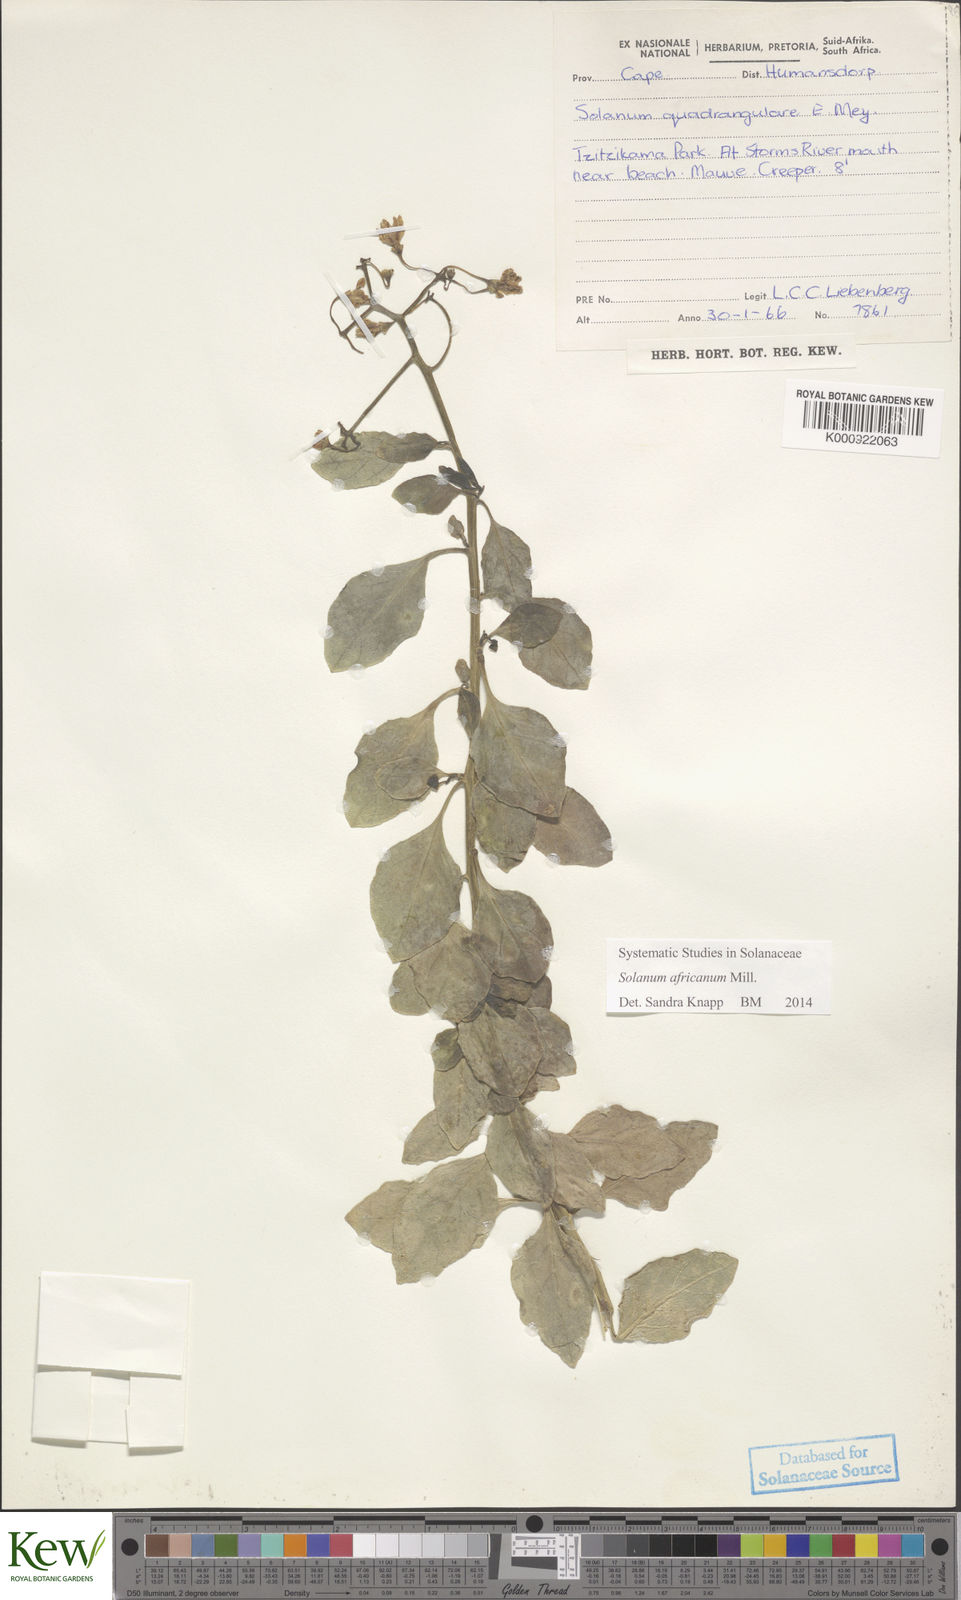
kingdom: Plantae
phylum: Tracheophyta
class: Magnoliopsida
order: Solanales
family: Solanaceae
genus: Solanum
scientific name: Solanum africanum
